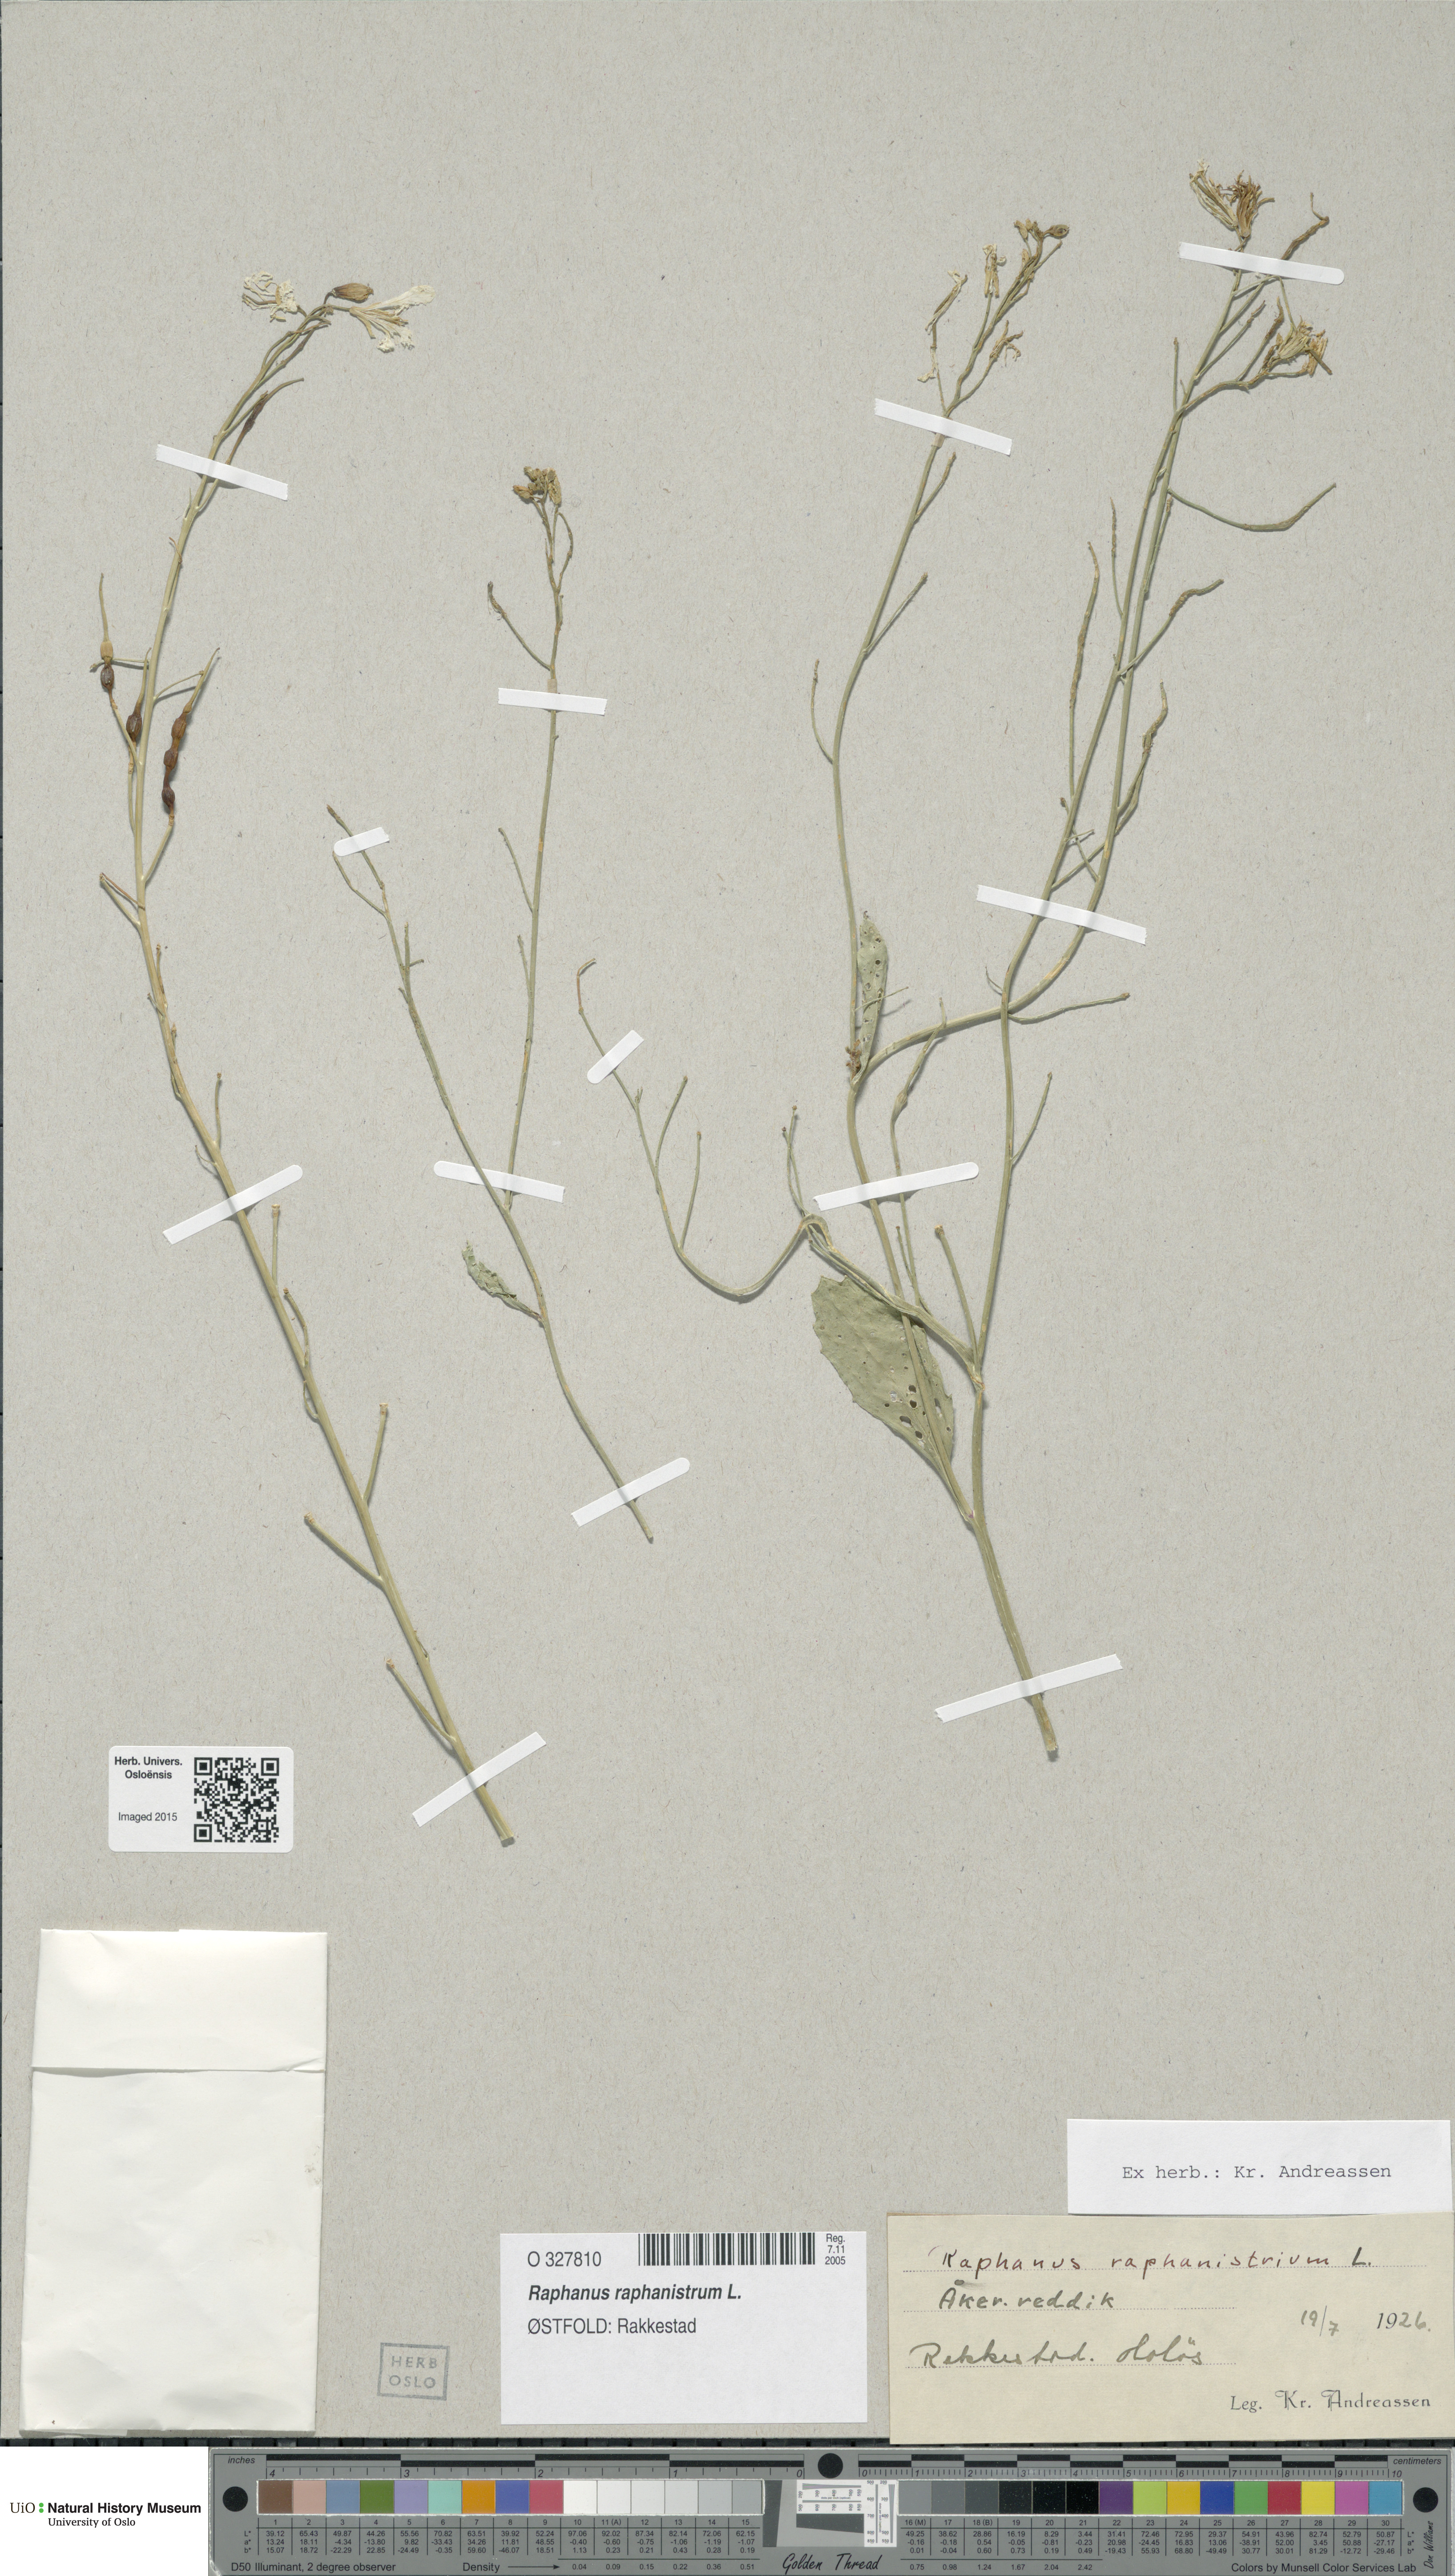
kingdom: Plantae
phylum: Tracheophyta
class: Magnoliopsida
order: Brassicales
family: Brassicaceae
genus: Raphanus
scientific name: Raphanus raphanistrum
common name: Wild radish
